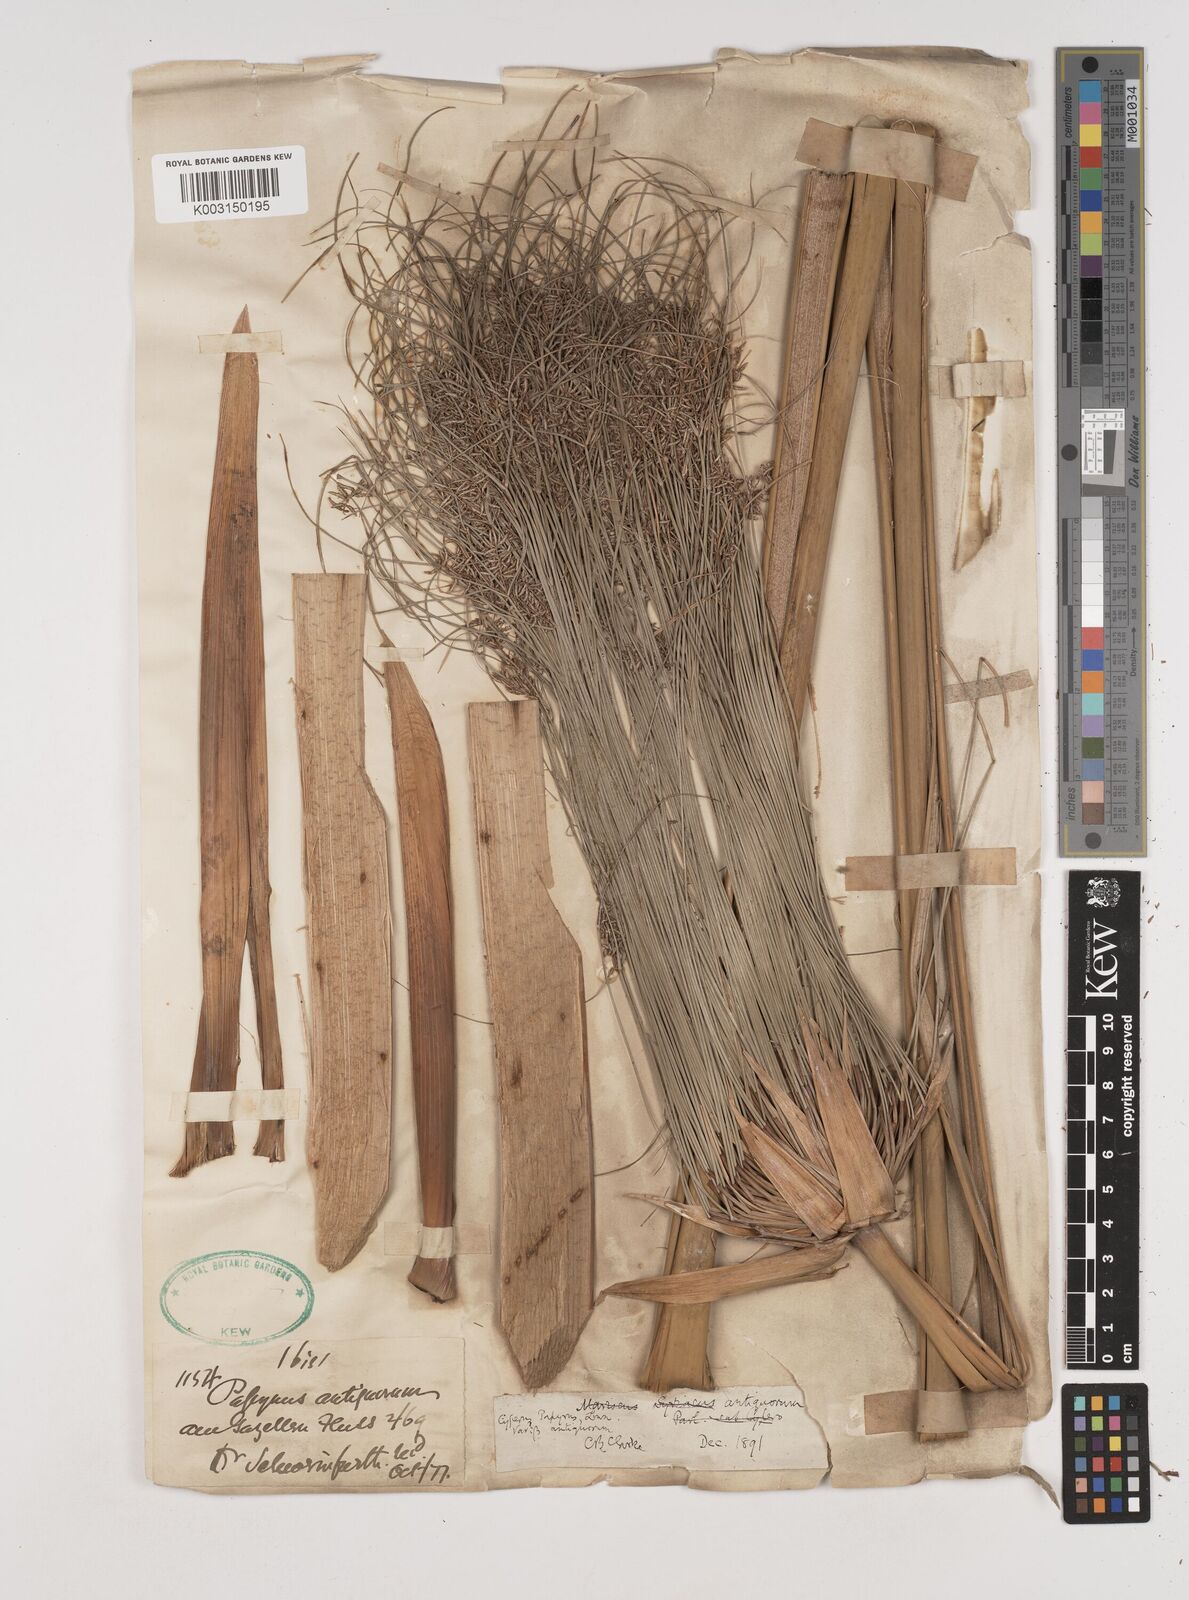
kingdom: Plantae
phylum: Tracheophyta
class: Liliopsida
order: Poales
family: Cyperaceae
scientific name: Cyperaceae
